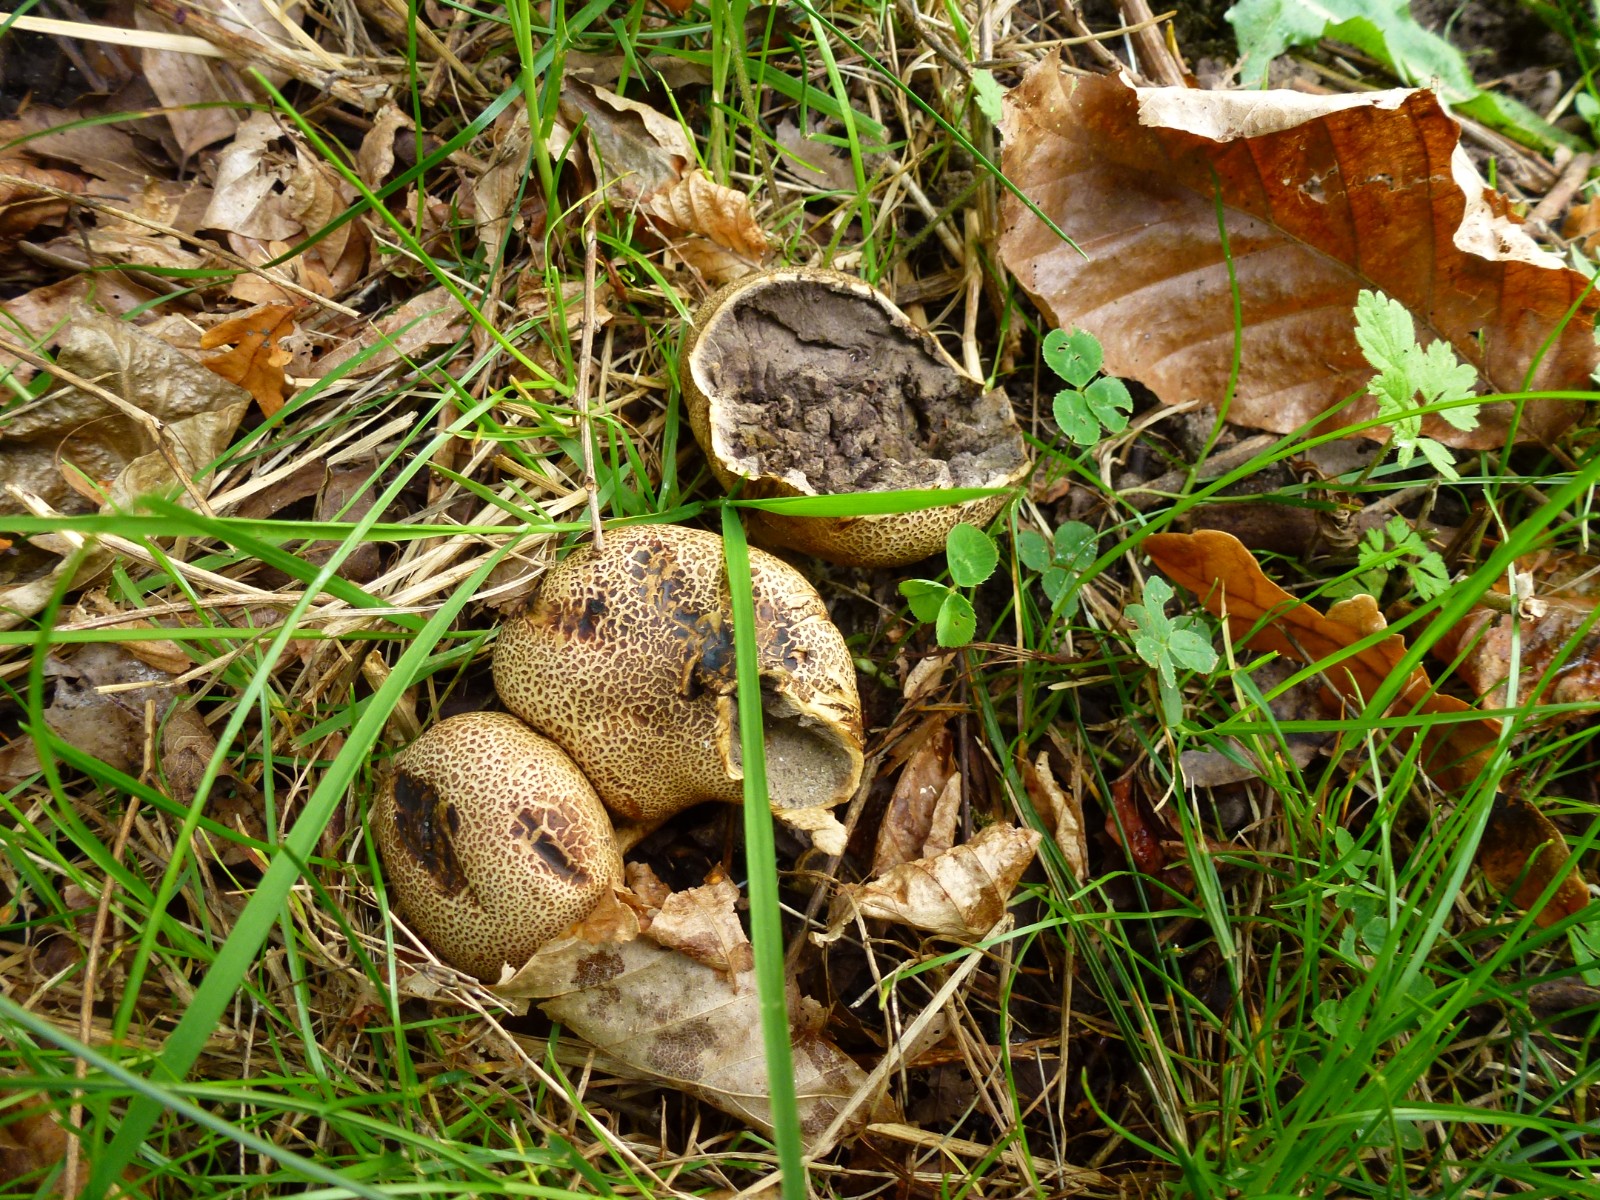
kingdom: Fungi
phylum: Basidiomycota
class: Agaricomycetes
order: Boletales
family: Sclerodermataceae
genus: Scleroderma
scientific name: Scleroderma
